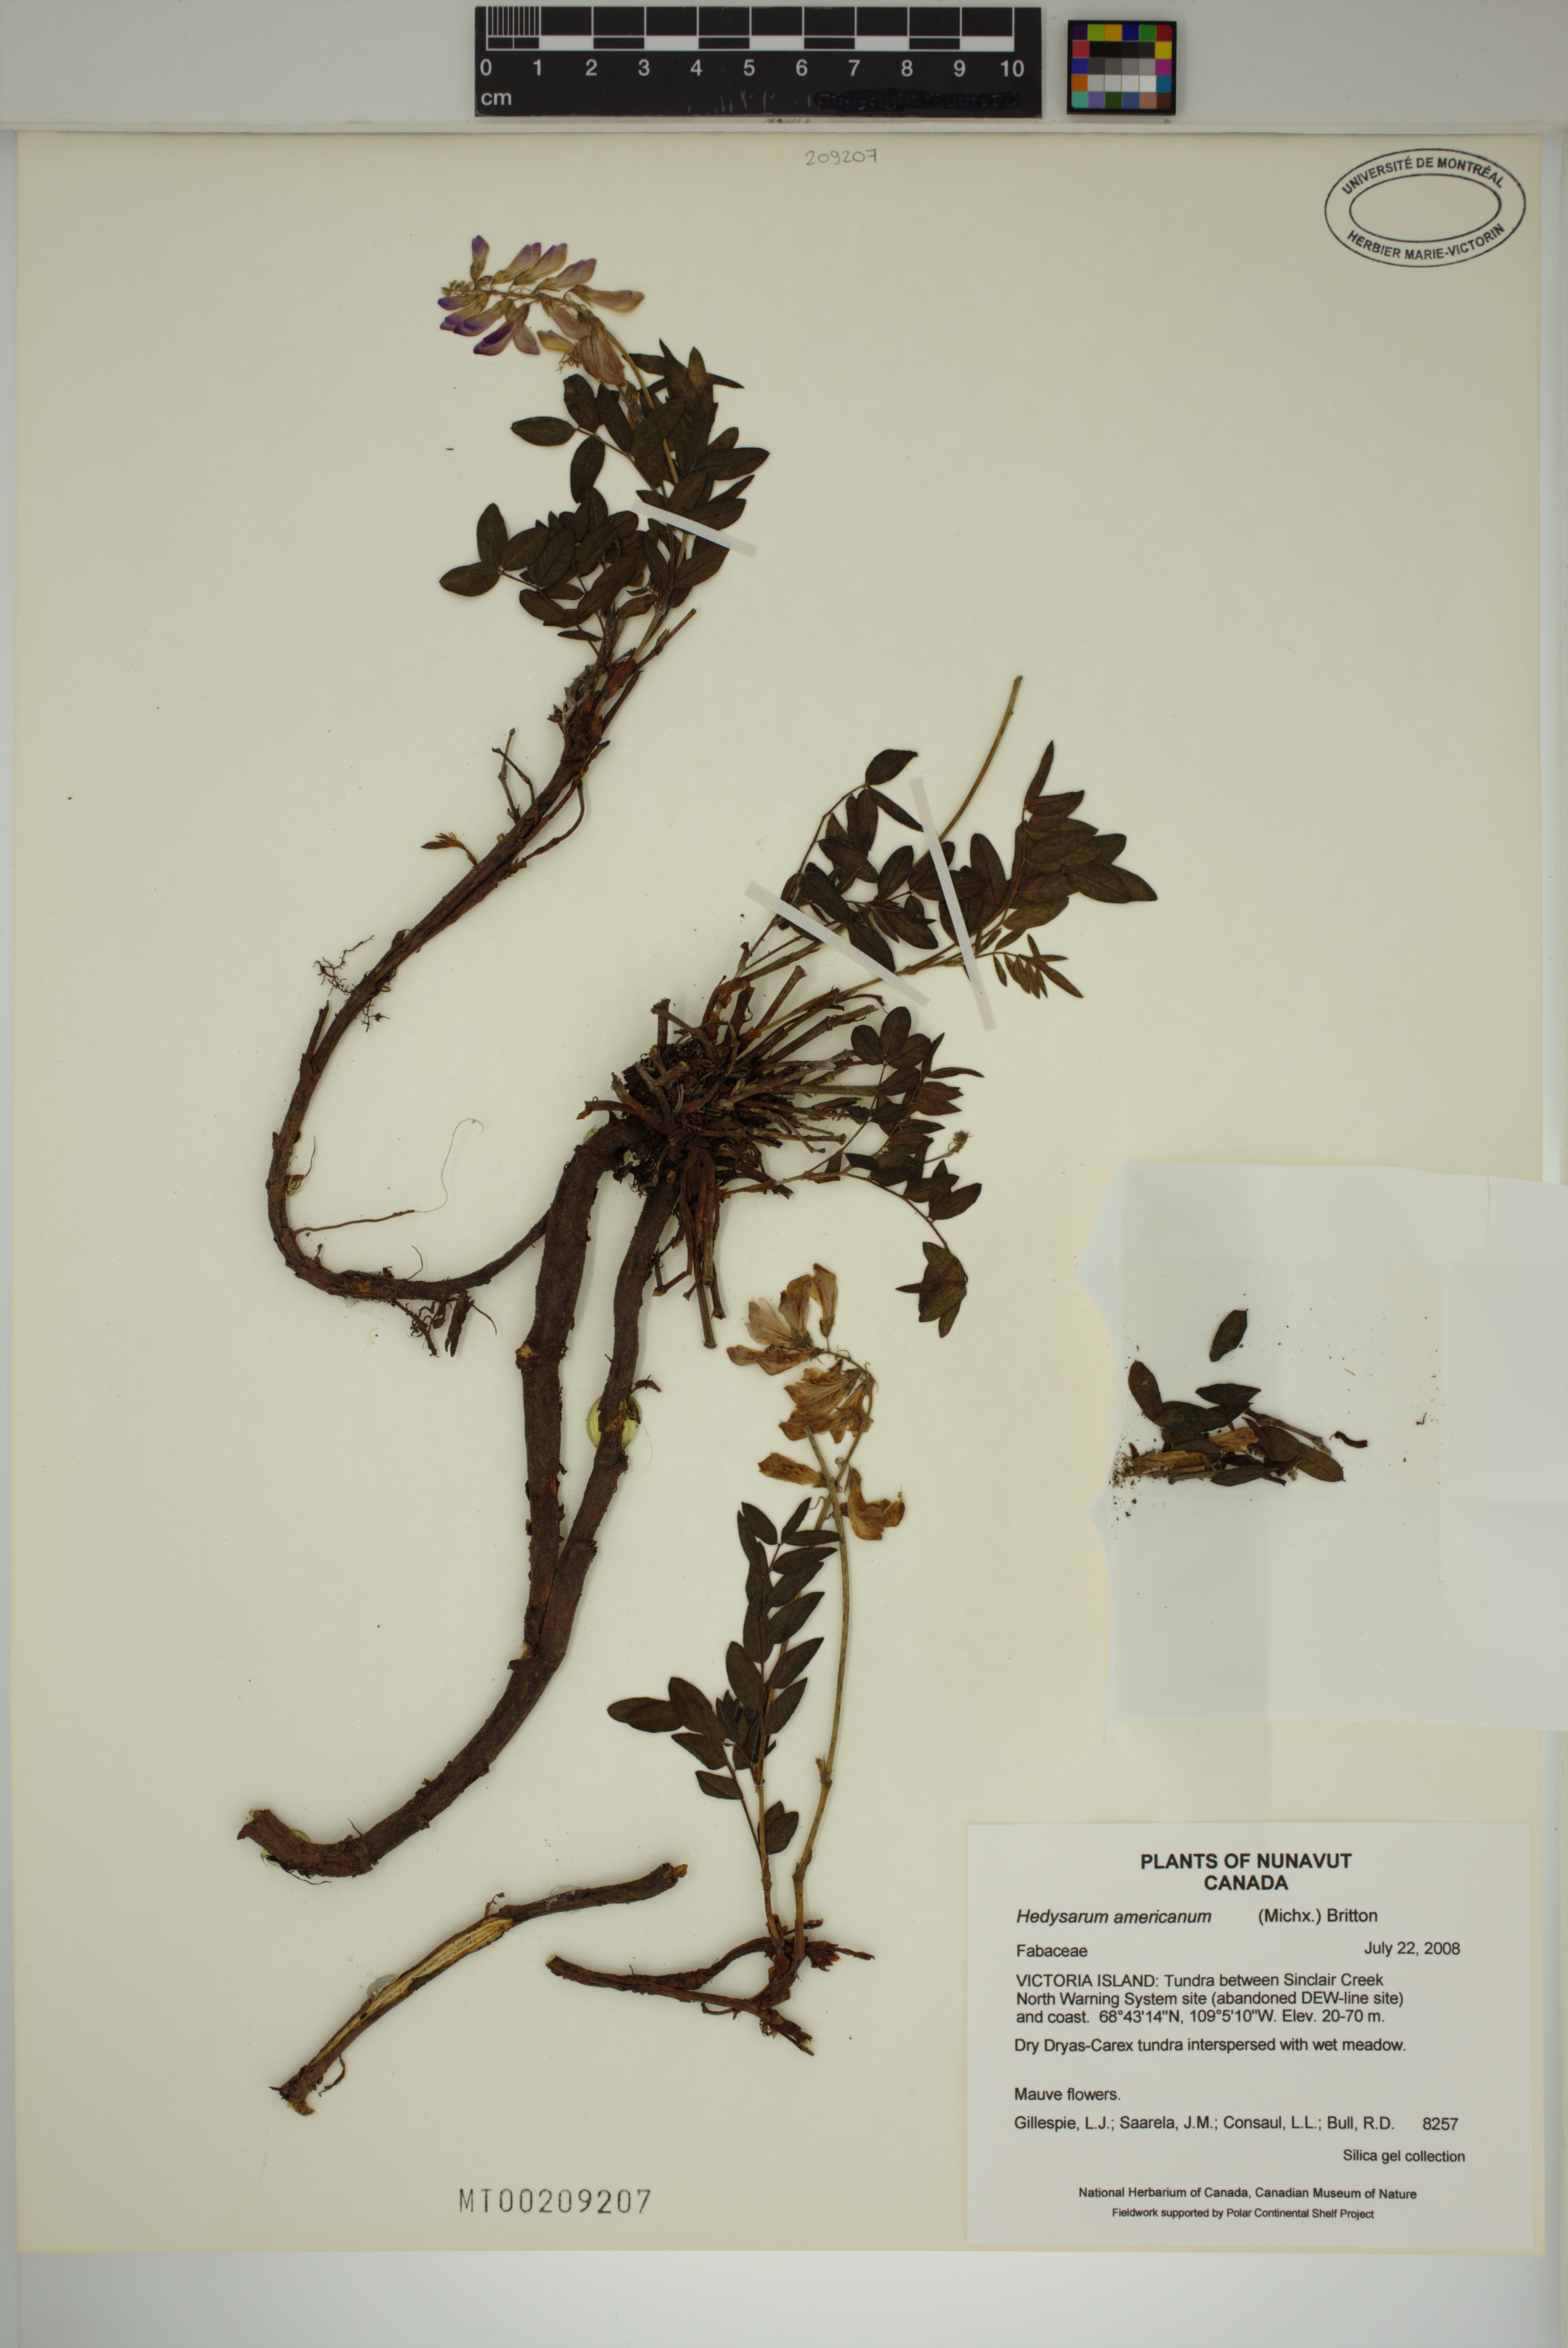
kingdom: Plantae
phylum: Tracheophyta
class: Magnoliopsida
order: Fabales
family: Fabaceae
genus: Hedysarum
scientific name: Hedysarum americanum
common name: Alpine hedysarum
